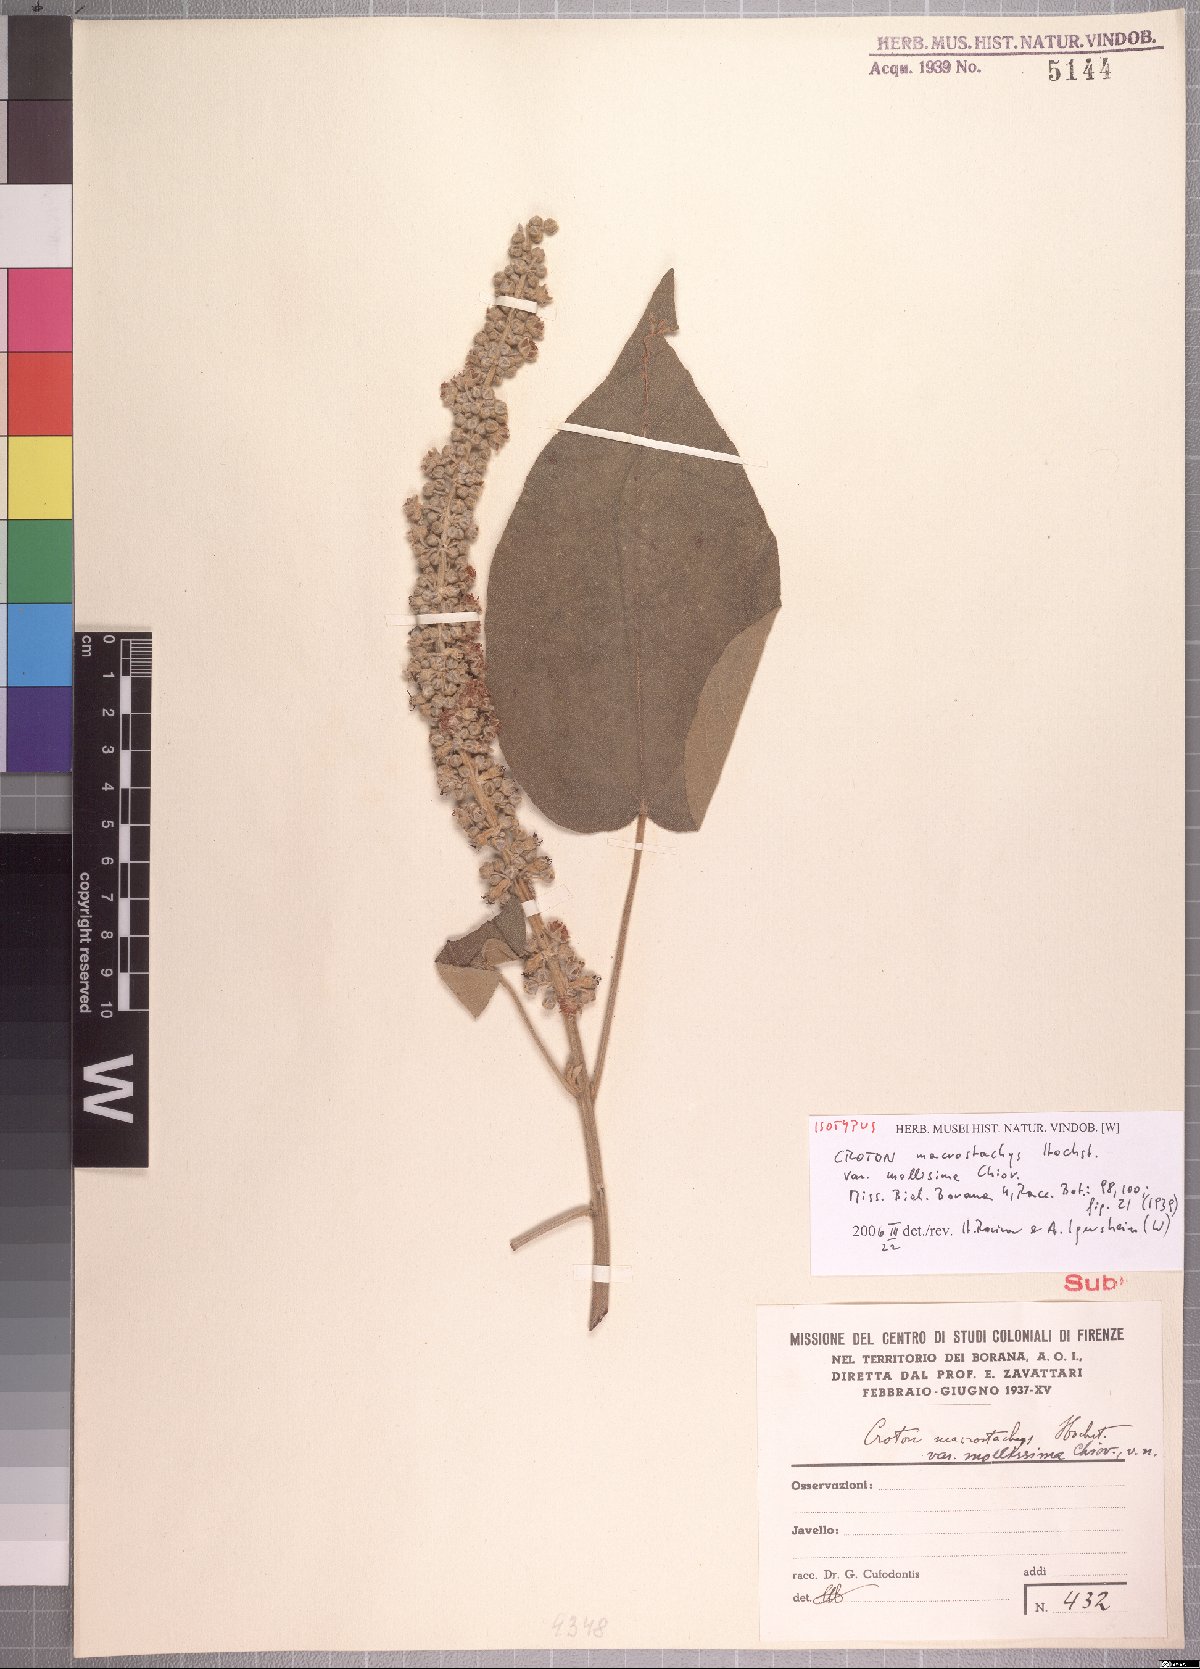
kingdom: Plantae
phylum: Tracheophyta
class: Magnoliopsida
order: Malpighiales
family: Euphorbiaceae
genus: Croton
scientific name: Croton macrostachyus
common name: Mutundu
